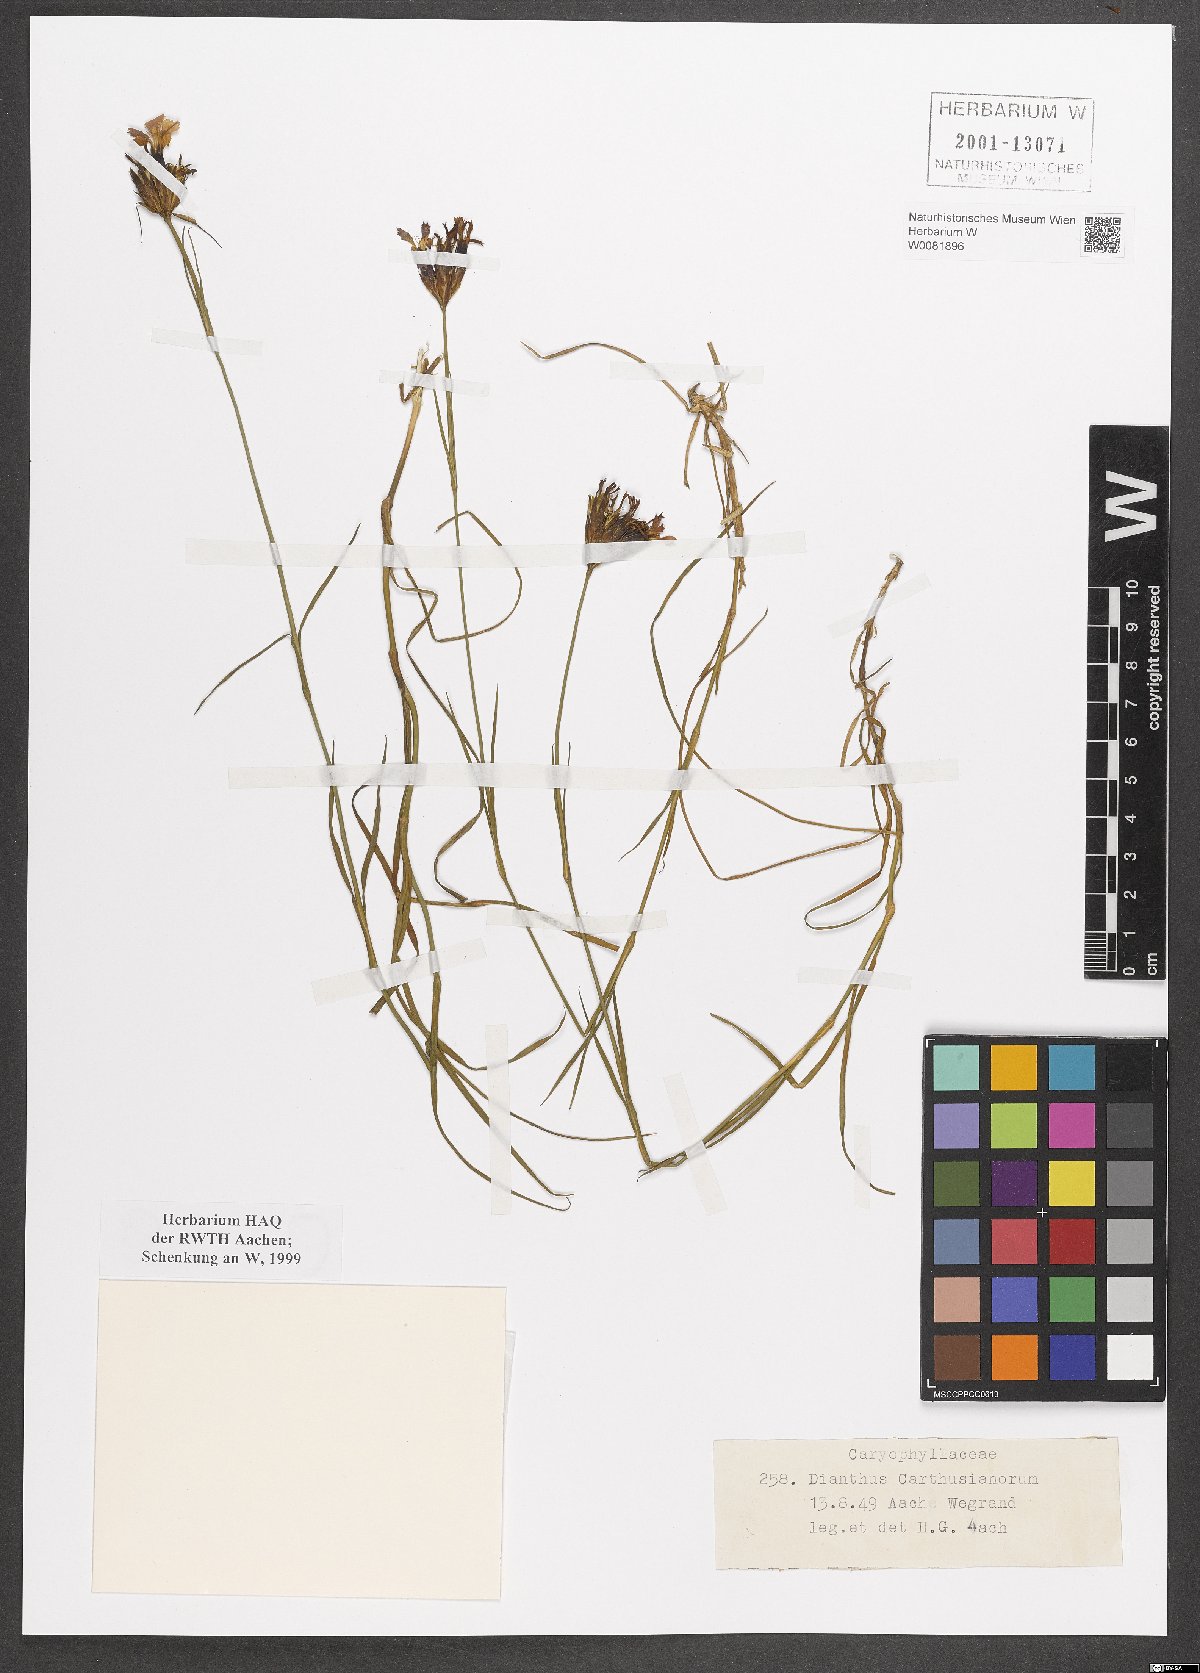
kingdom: Plantae
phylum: Tracheophyta
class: Magnoliopsida
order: Caryophyllales
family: Caryophyllaceae
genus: Dianthus
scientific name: Dianthus carthusianorum
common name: Carthusian pink
